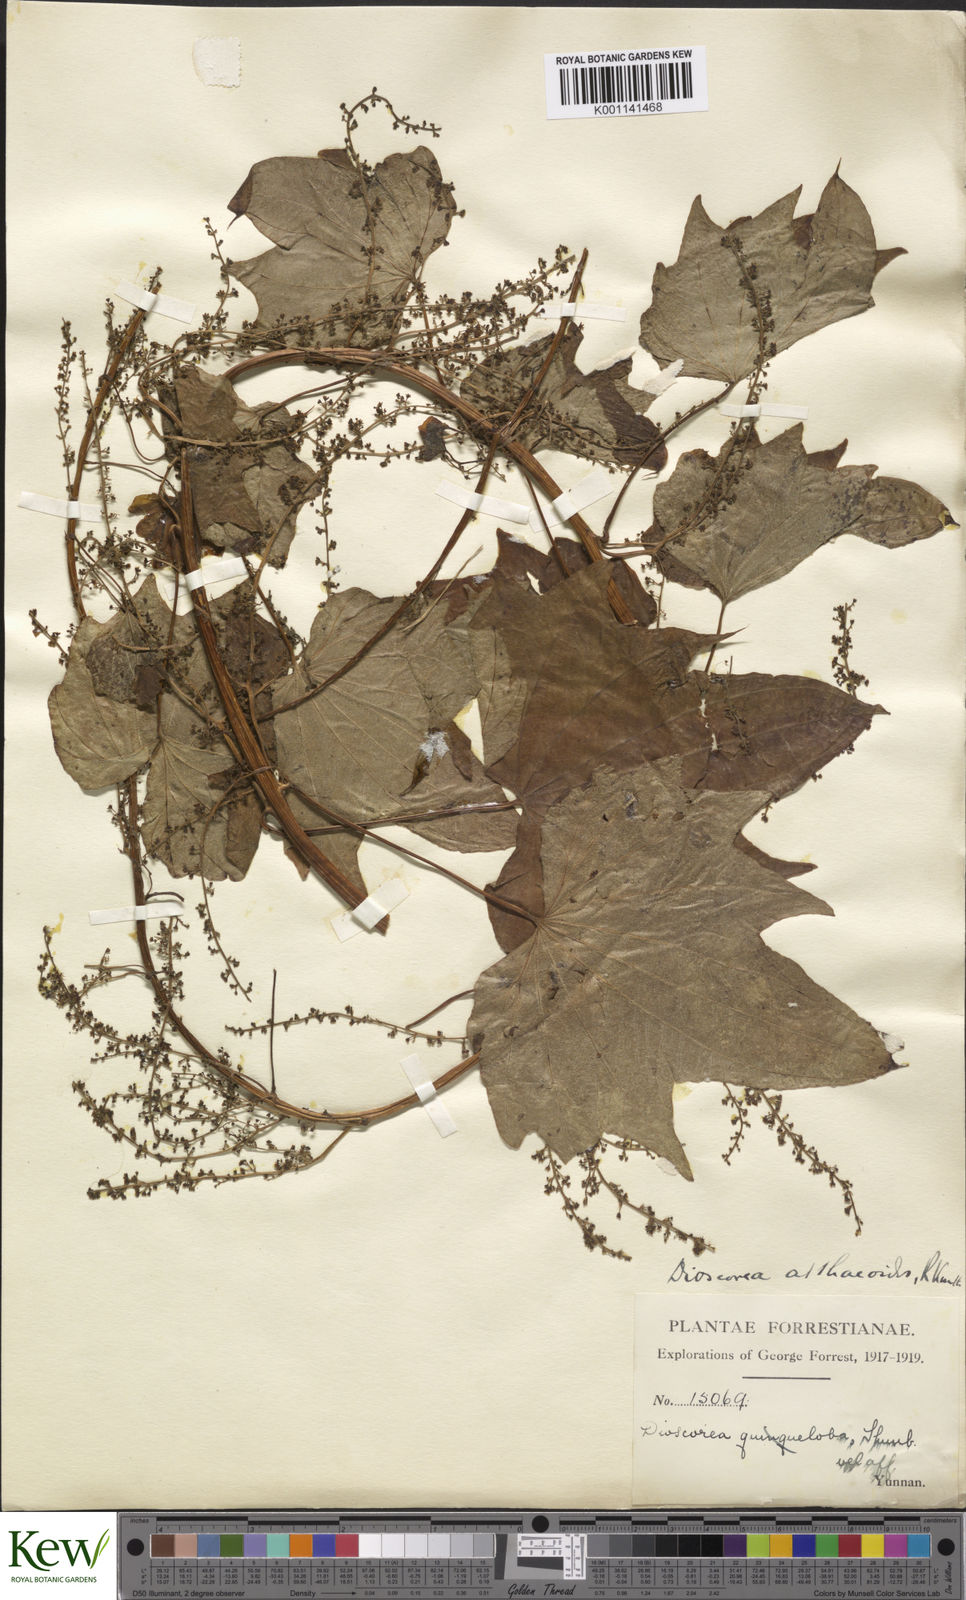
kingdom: Plantae
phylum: Tracheophyta
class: Liliopsida
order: Dioscoreales
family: Dioscoreaceae
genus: Dioscorea
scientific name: Dioscorea althaeoides
